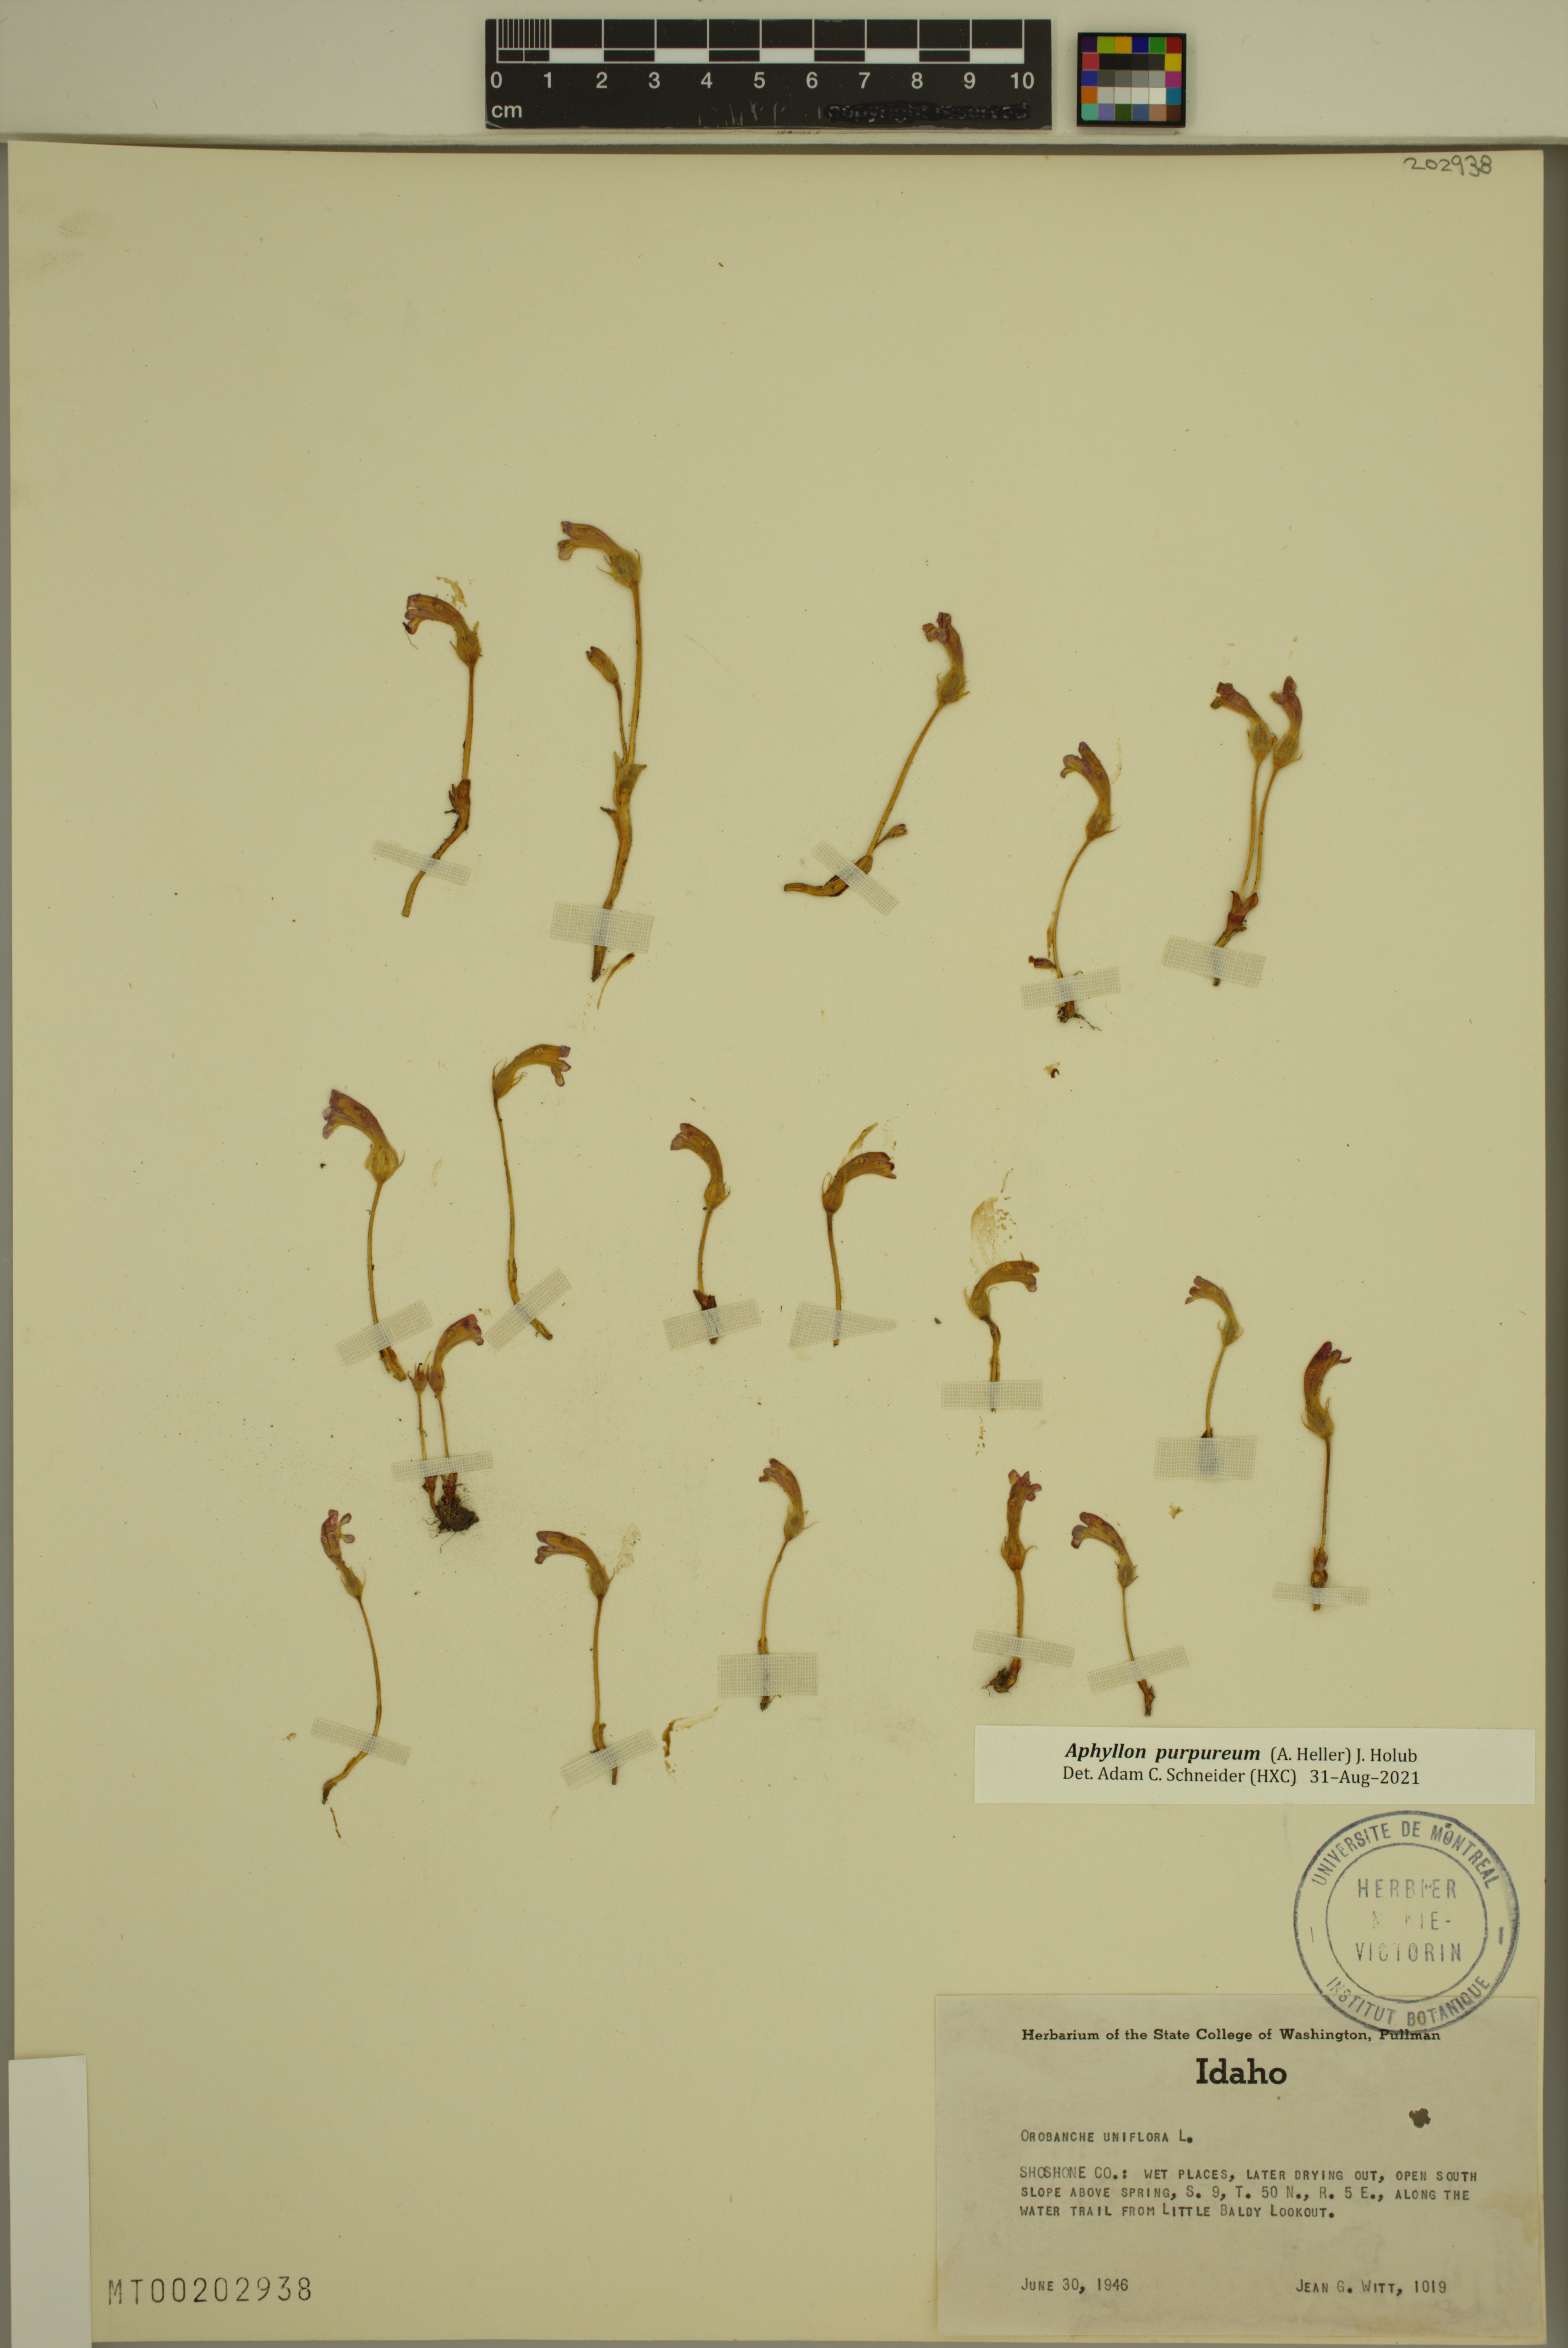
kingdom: Plantae
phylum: Tracheophyta
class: Magnoliopsida
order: Lamiales
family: Orobanchaceae
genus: Aphyllon
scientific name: Aphyllon uniflorum
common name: One-flowered broomrape
